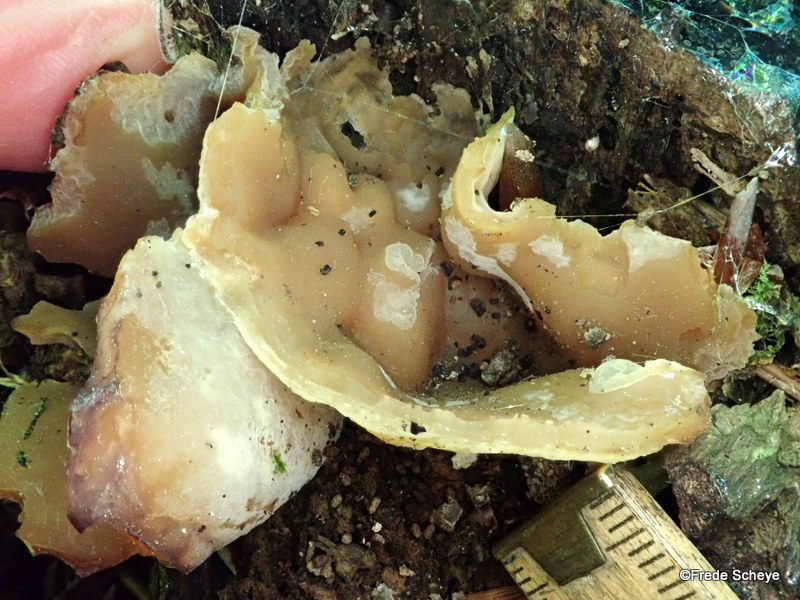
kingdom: Fungi
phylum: Ascomycota
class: Pezizomycetes
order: Pezizales
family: Pezizaceae
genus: Peziza
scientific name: Peziza arvernensis
